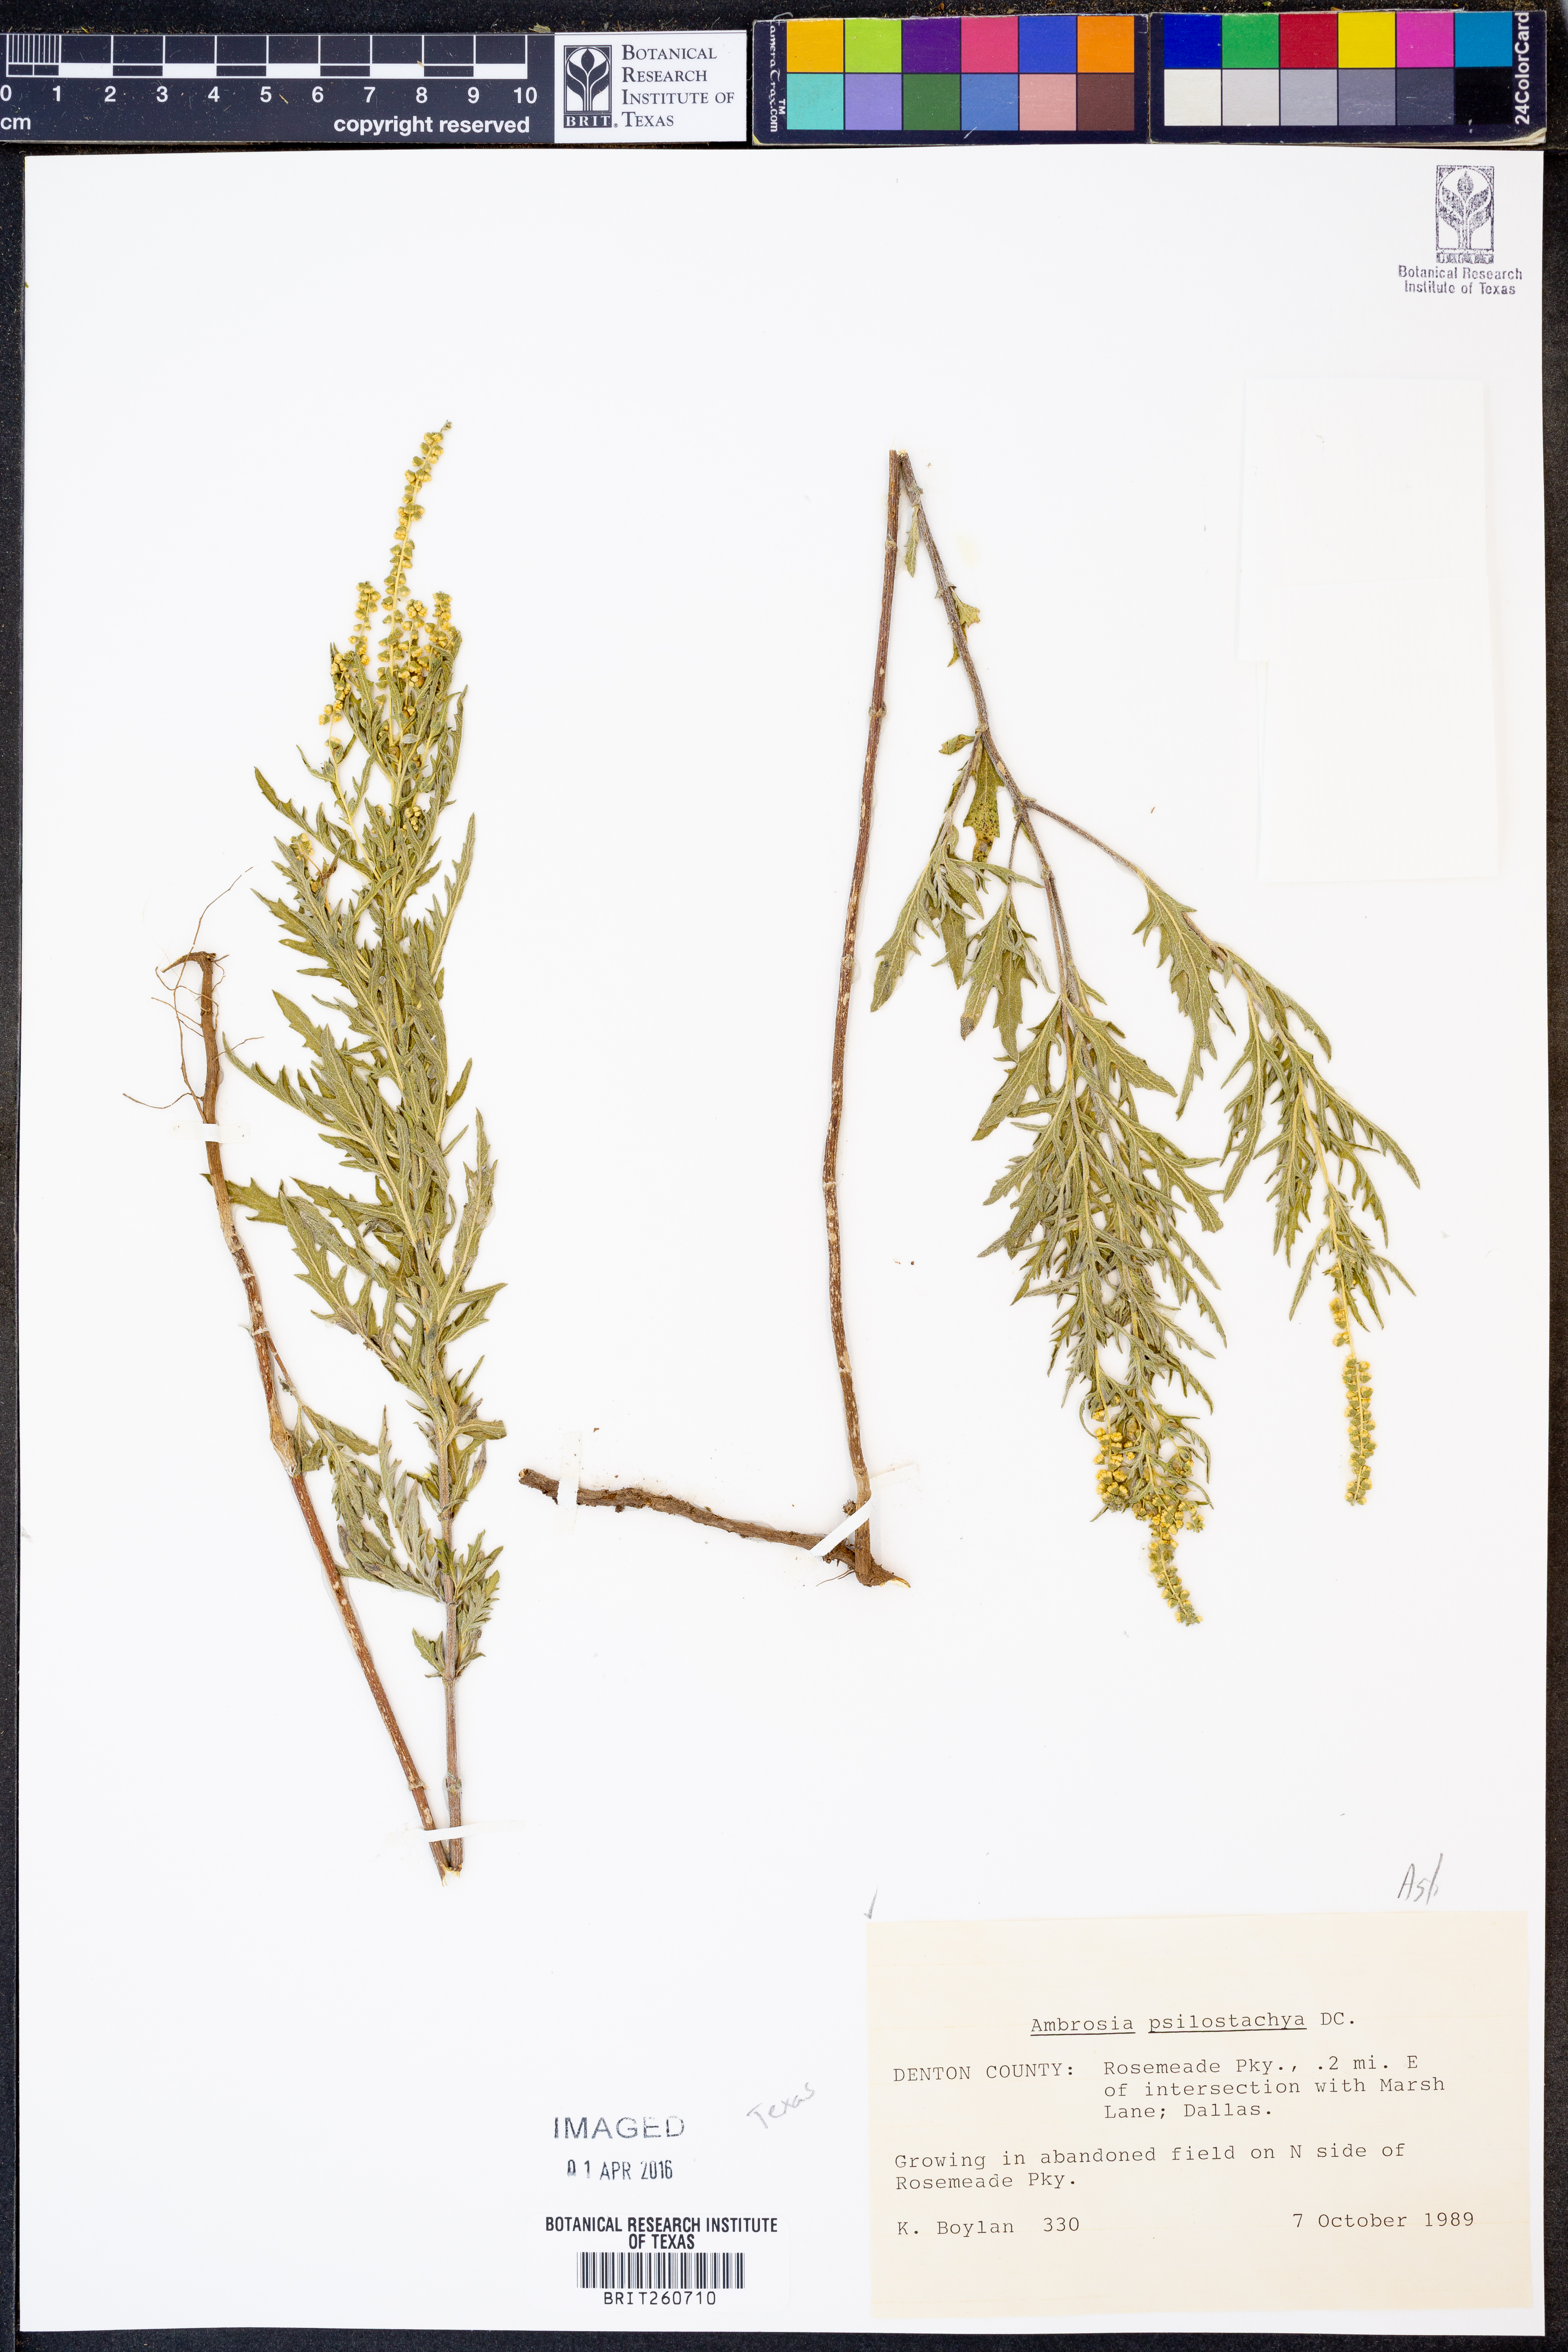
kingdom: Plantae
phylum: Tracheophyta
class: Magnoliopsida
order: Asterales
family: Asteraceae
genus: Ambrosia
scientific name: Ambrosia psilostachya
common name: Perennial ragweed
